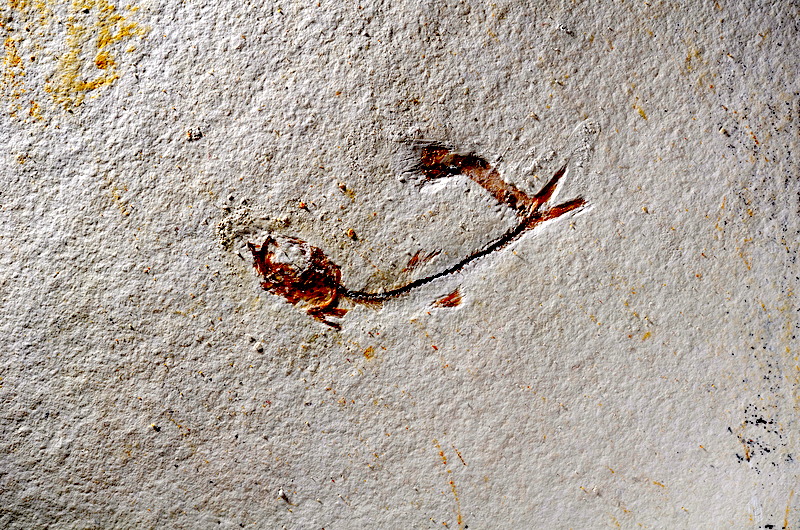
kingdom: Animalia
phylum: Chordata
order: Salmoniformes
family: Orthogonikleithridae
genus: Orthogonikleithrus
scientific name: Orthogonikleithrus hoelli
